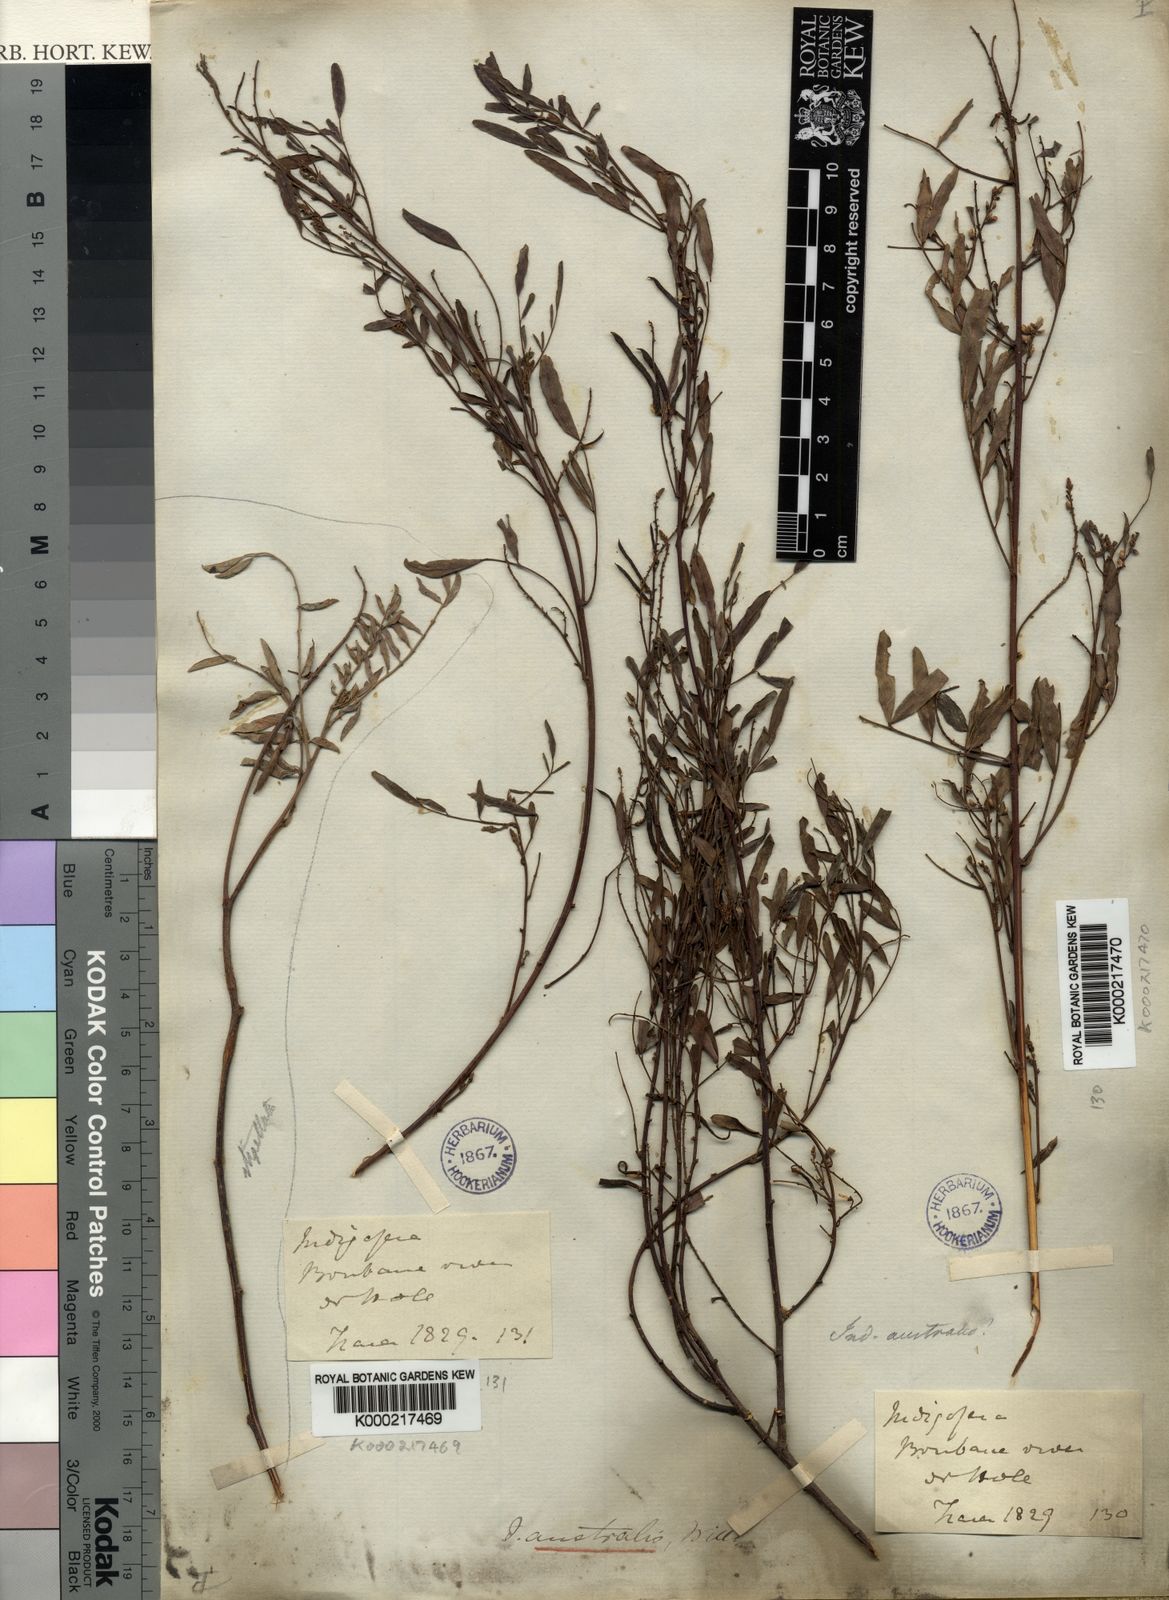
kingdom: Plantae
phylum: Tracheophyta
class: Magnoliopsida
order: Fabales
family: Fabaceae
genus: Indigofera
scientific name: Indigofera australis
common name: Australian indigo
